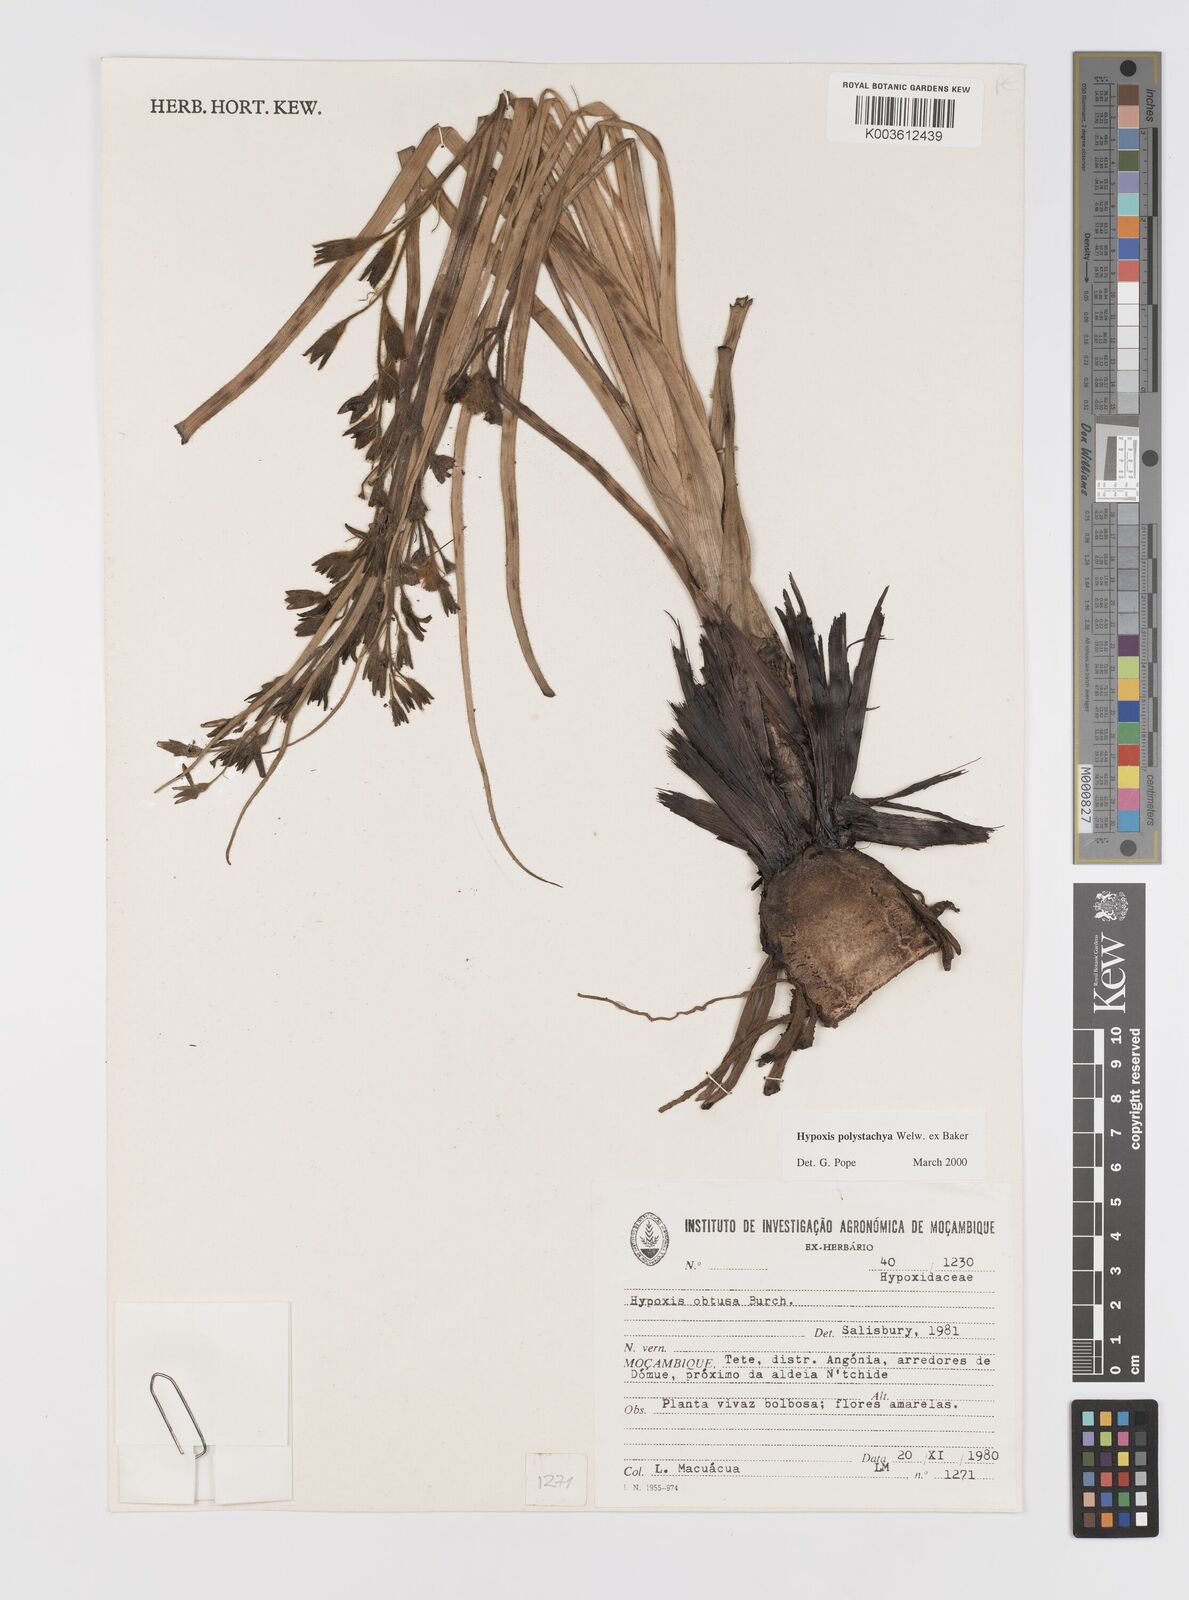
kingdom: Plantae
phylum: Tracheophyta
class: Liliopsida
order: Asparagales
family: Hypoxidaceae
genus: Hypoxis
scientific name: Hypoxis polystachya
